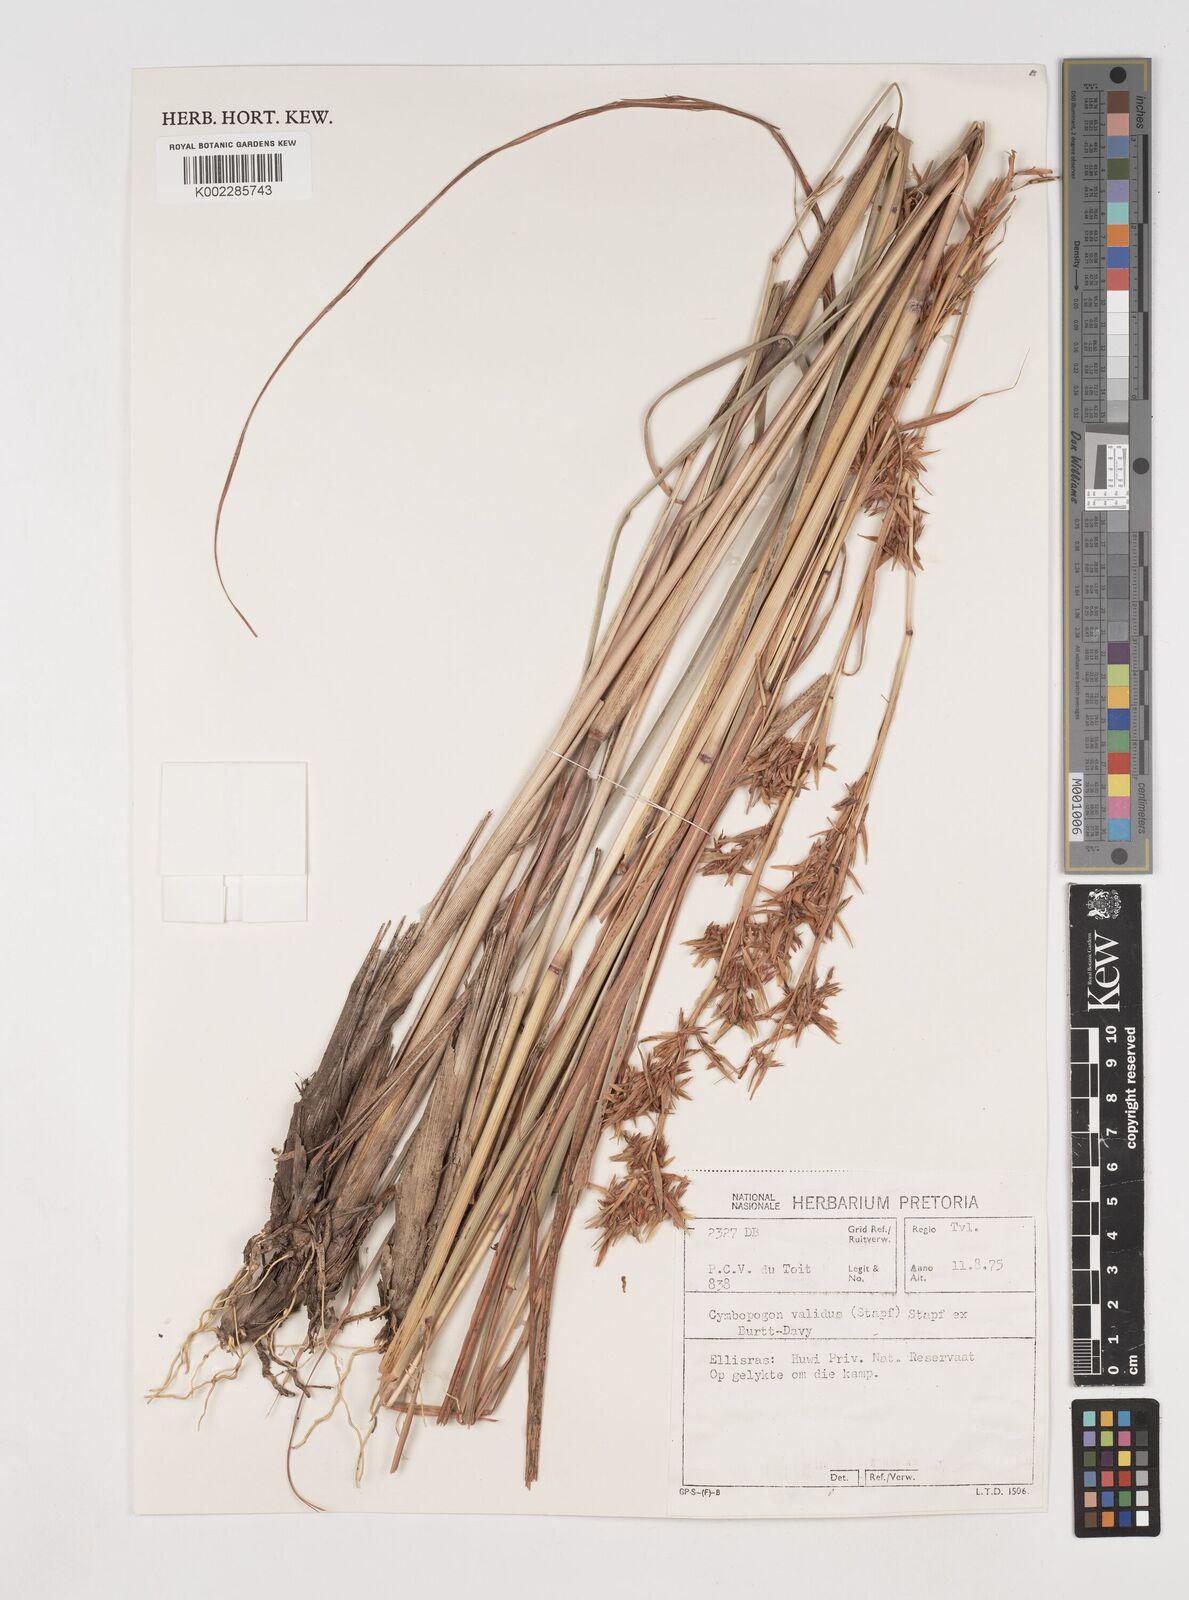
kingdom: Plantae
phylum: Tracheophyta
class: Liliopsida
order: Poales
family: Poaceae
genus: Cymbopogon
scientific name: Cymbopogon nardus
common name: Giant turpentine grass
